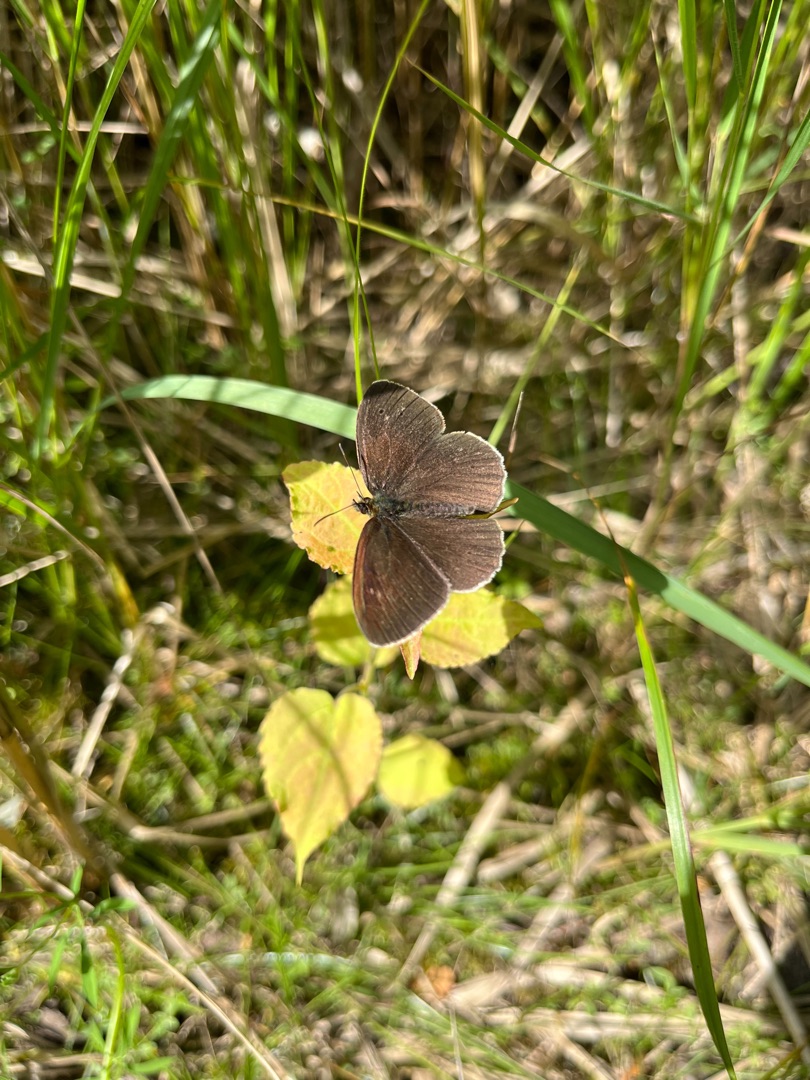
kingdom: Animalia
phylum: Arthropoda
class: Insecta
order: Lepidoptera
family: Nymphalidae
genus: Aphantopus
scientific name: Aphantopus hyperantus
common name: Engrandøje
